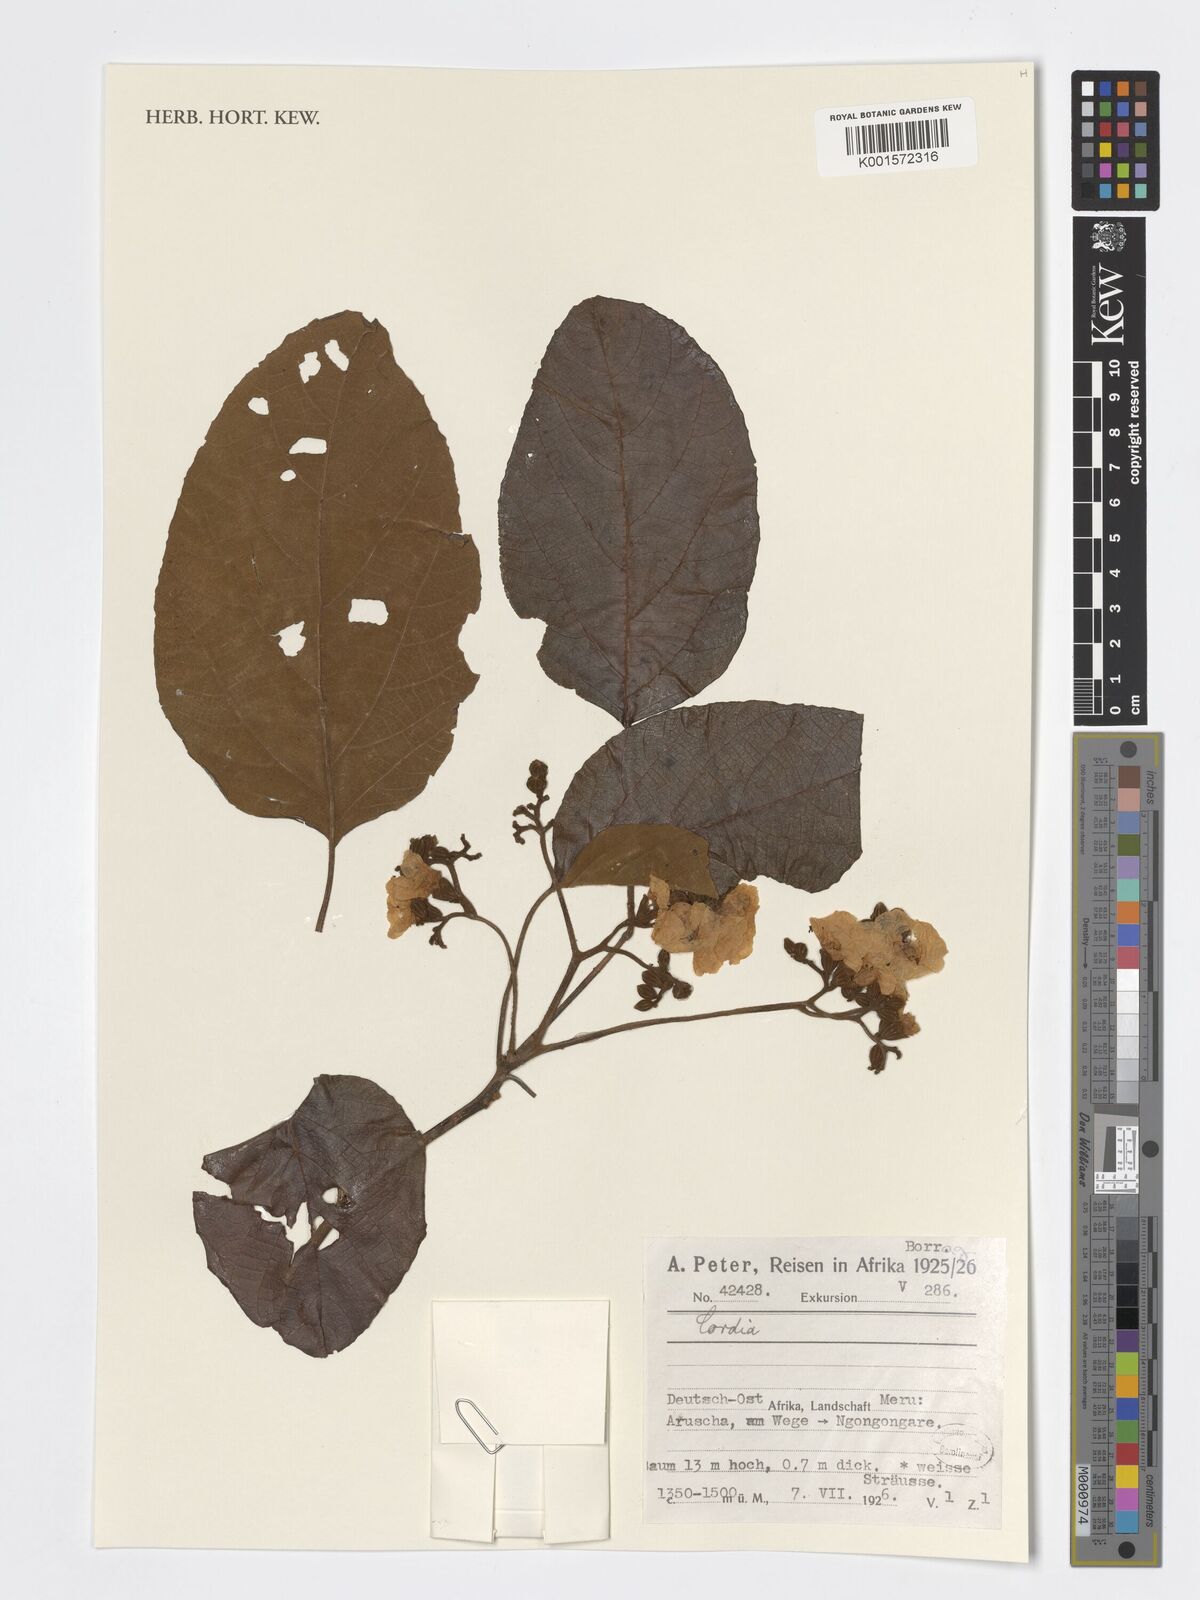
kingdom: Plantae
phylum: Tracheophyta
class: Magnoliopsida
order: Boraginales
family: Cordiaceae
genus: Cordia
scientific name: Cordia
